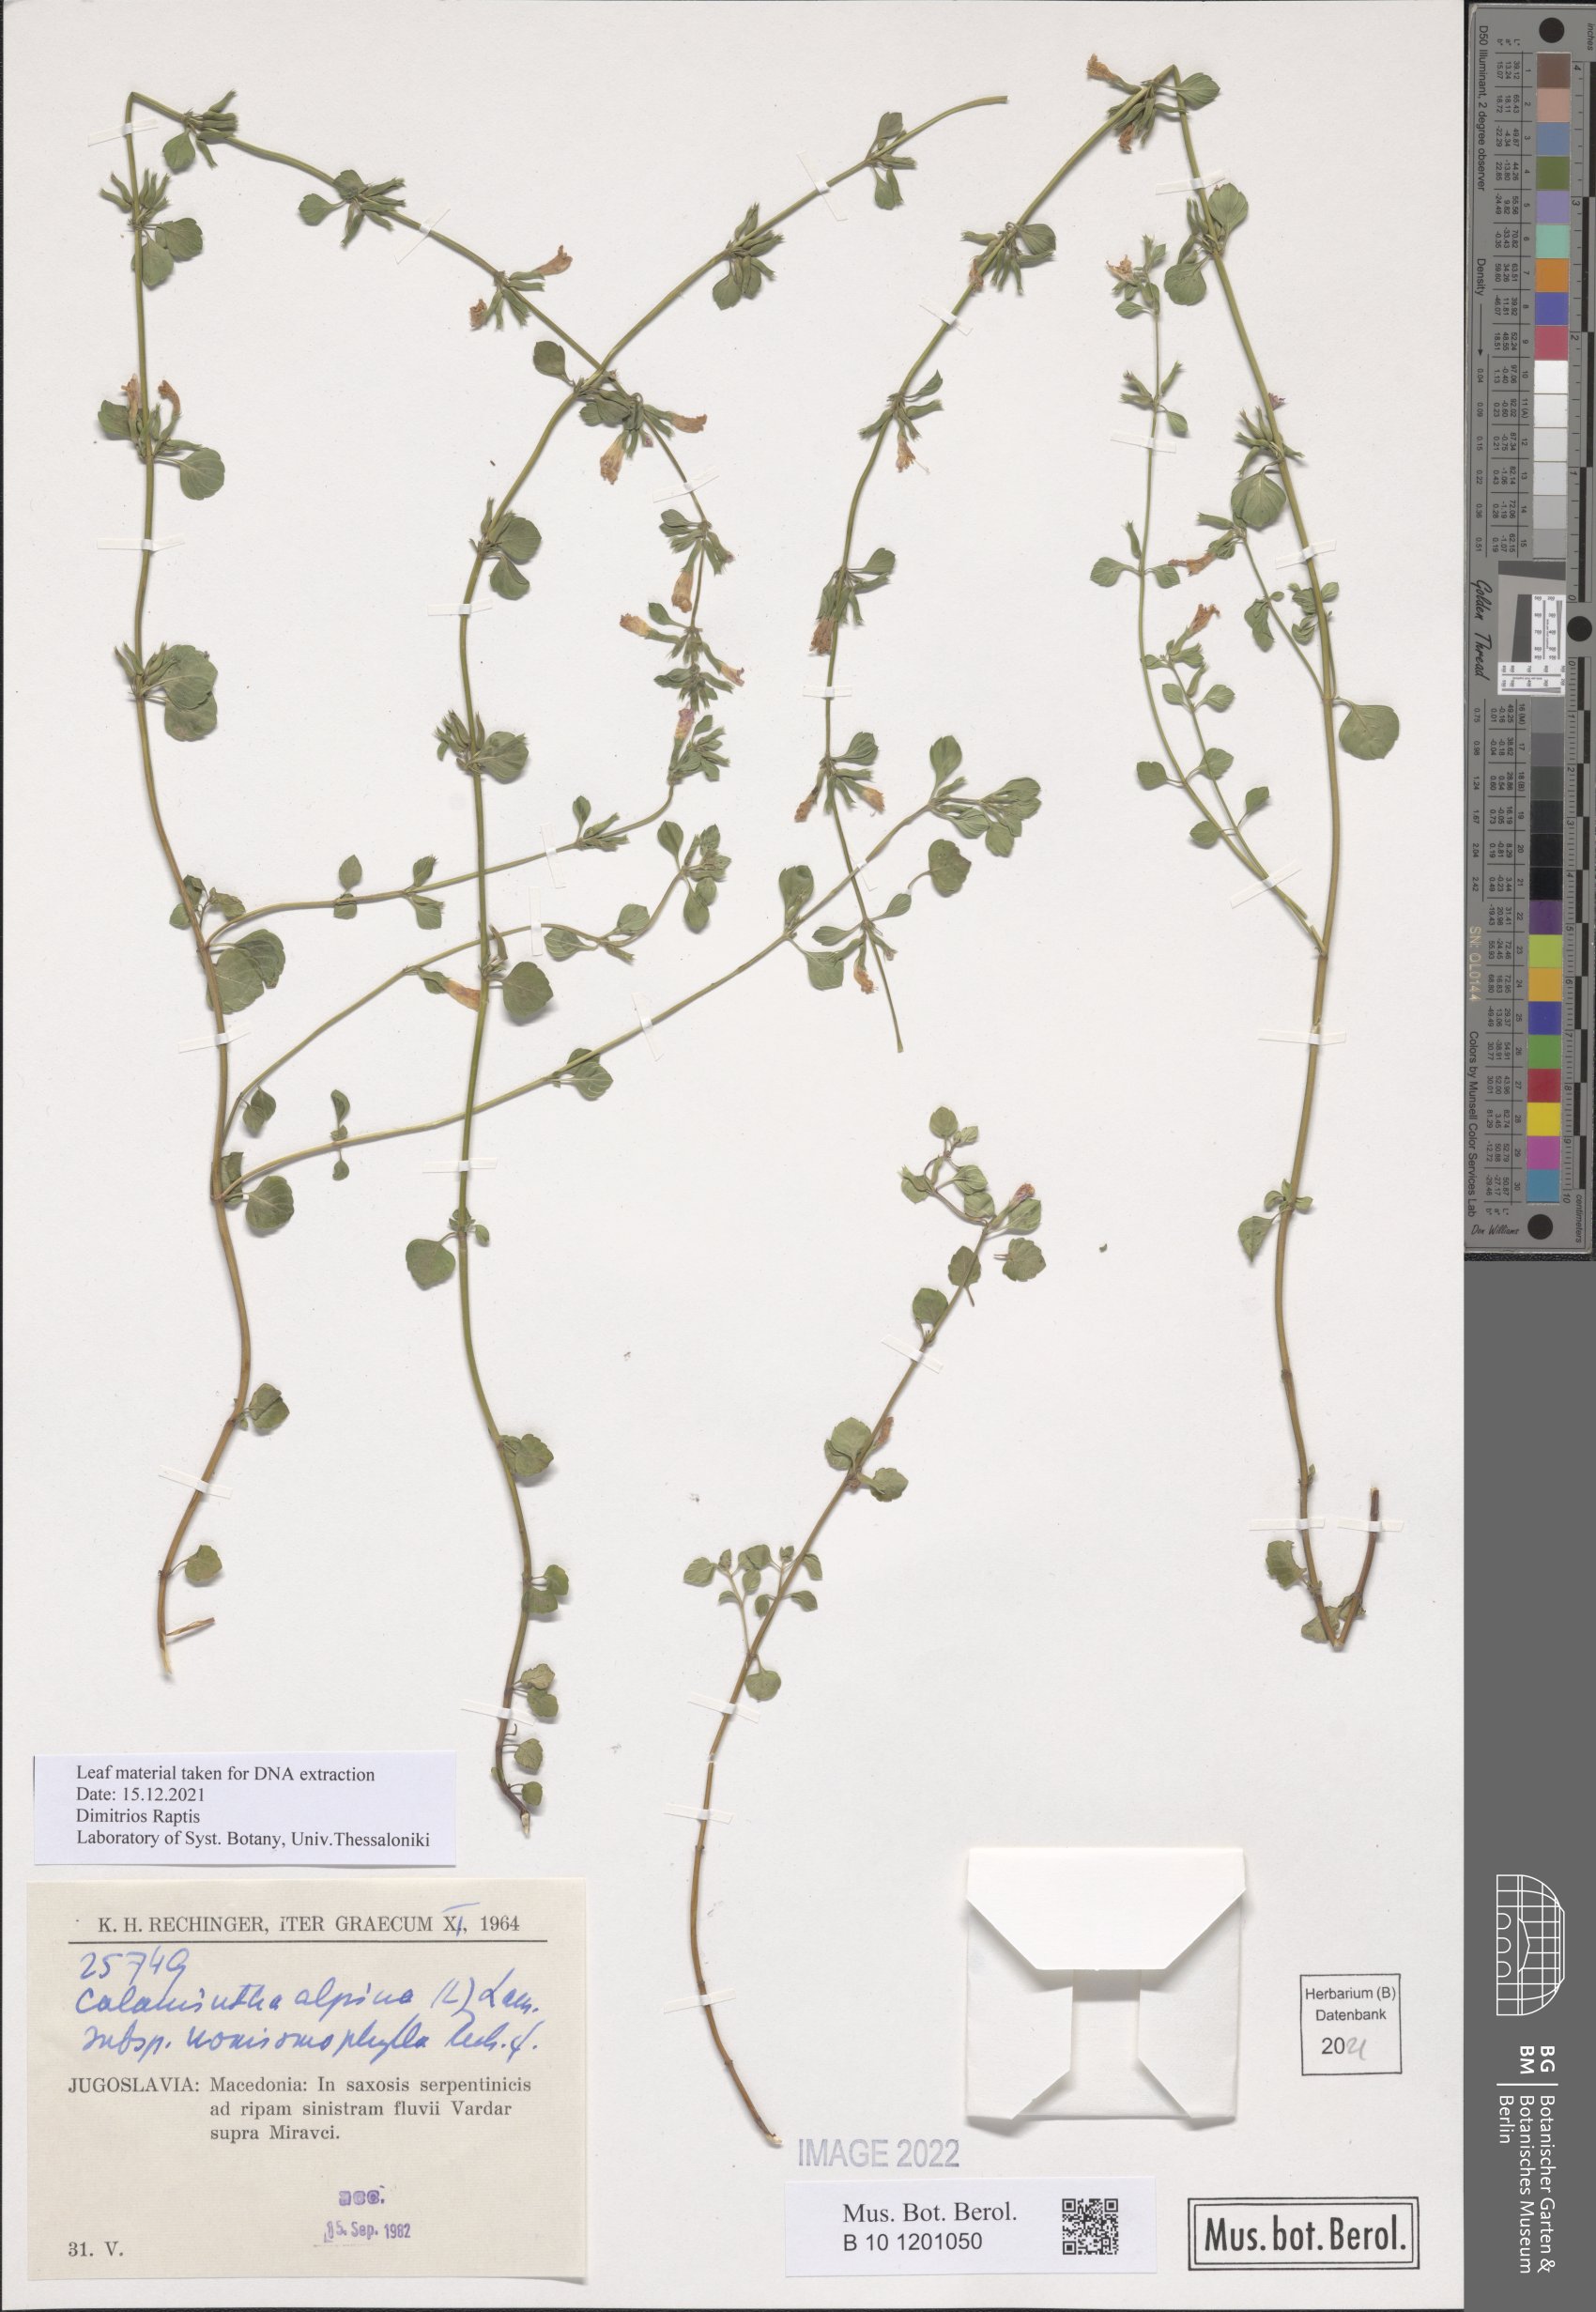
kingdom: Plantae
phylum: Tracheophyta
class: Magnoliopsida
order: Lamiales
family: Lamiaceae
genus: Clinopodium
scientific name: Clinopodium alpinum
